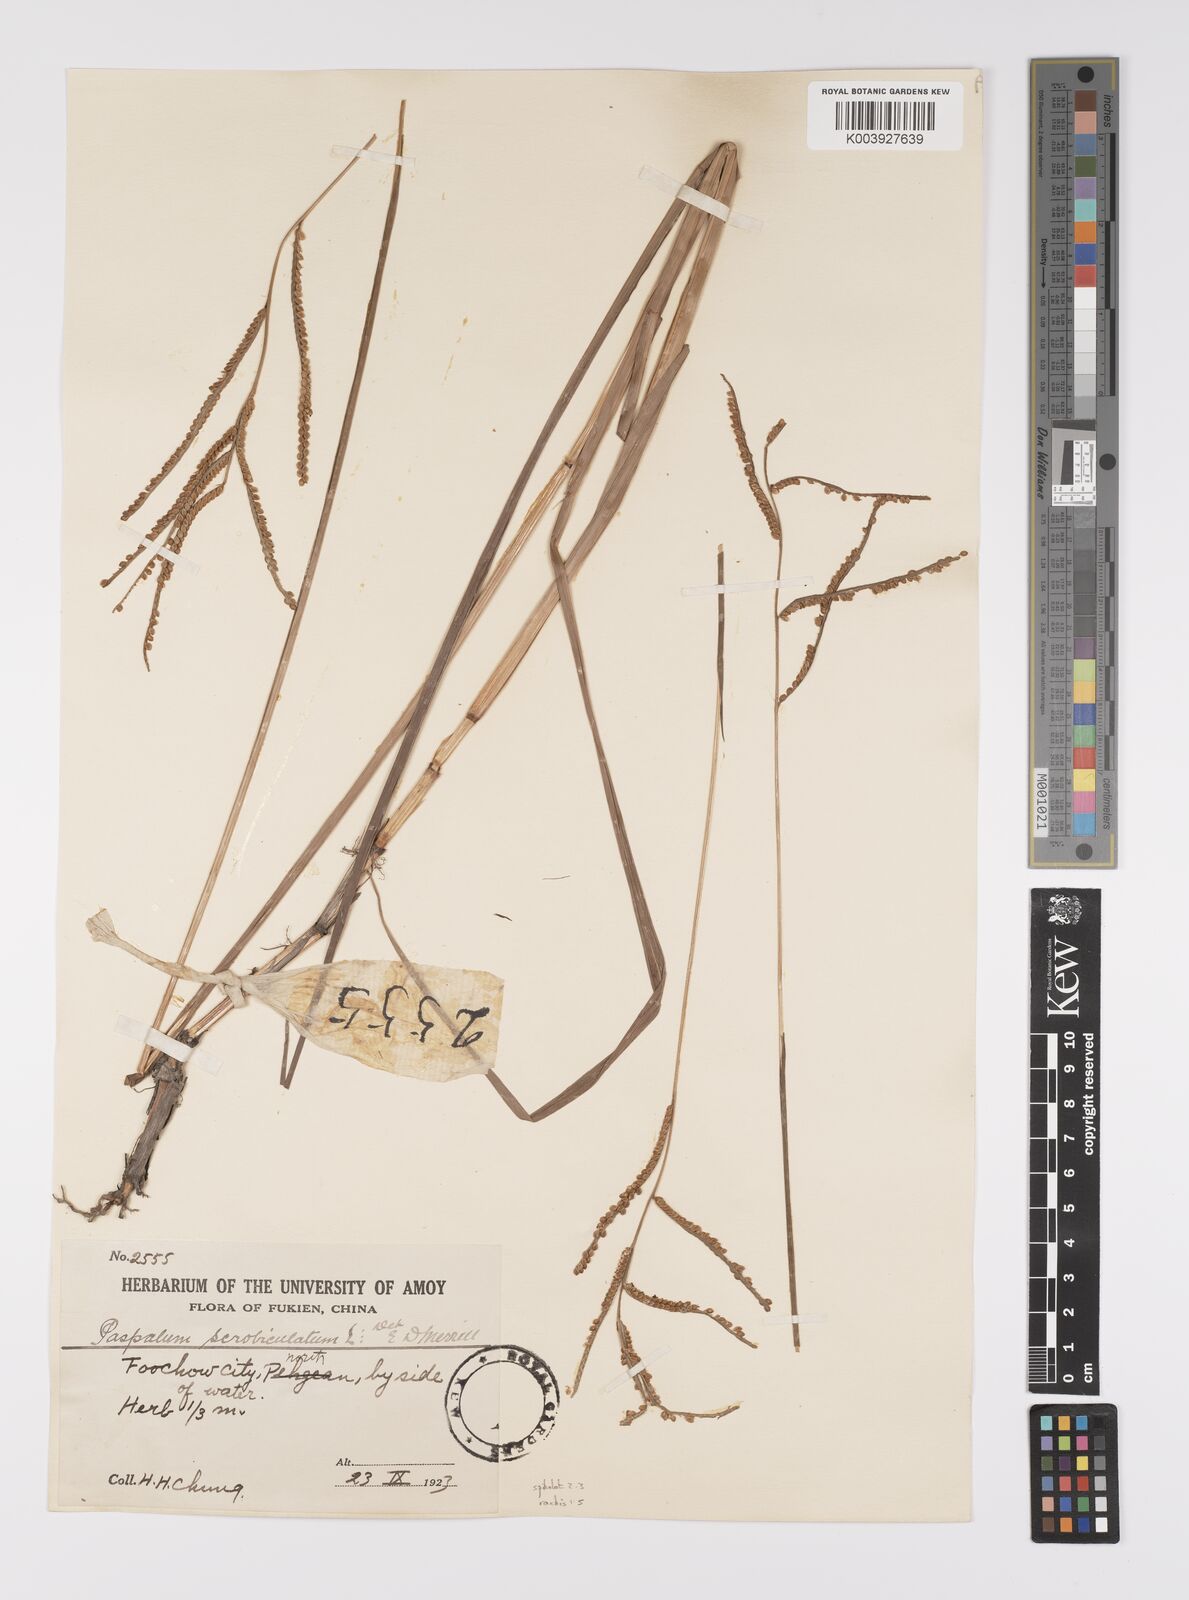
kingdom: Plantae
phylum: Tracheophyta
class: Liliopsida
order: Poales
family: Poaceae
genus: Paspalum
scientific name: Paspalum orbiculare
